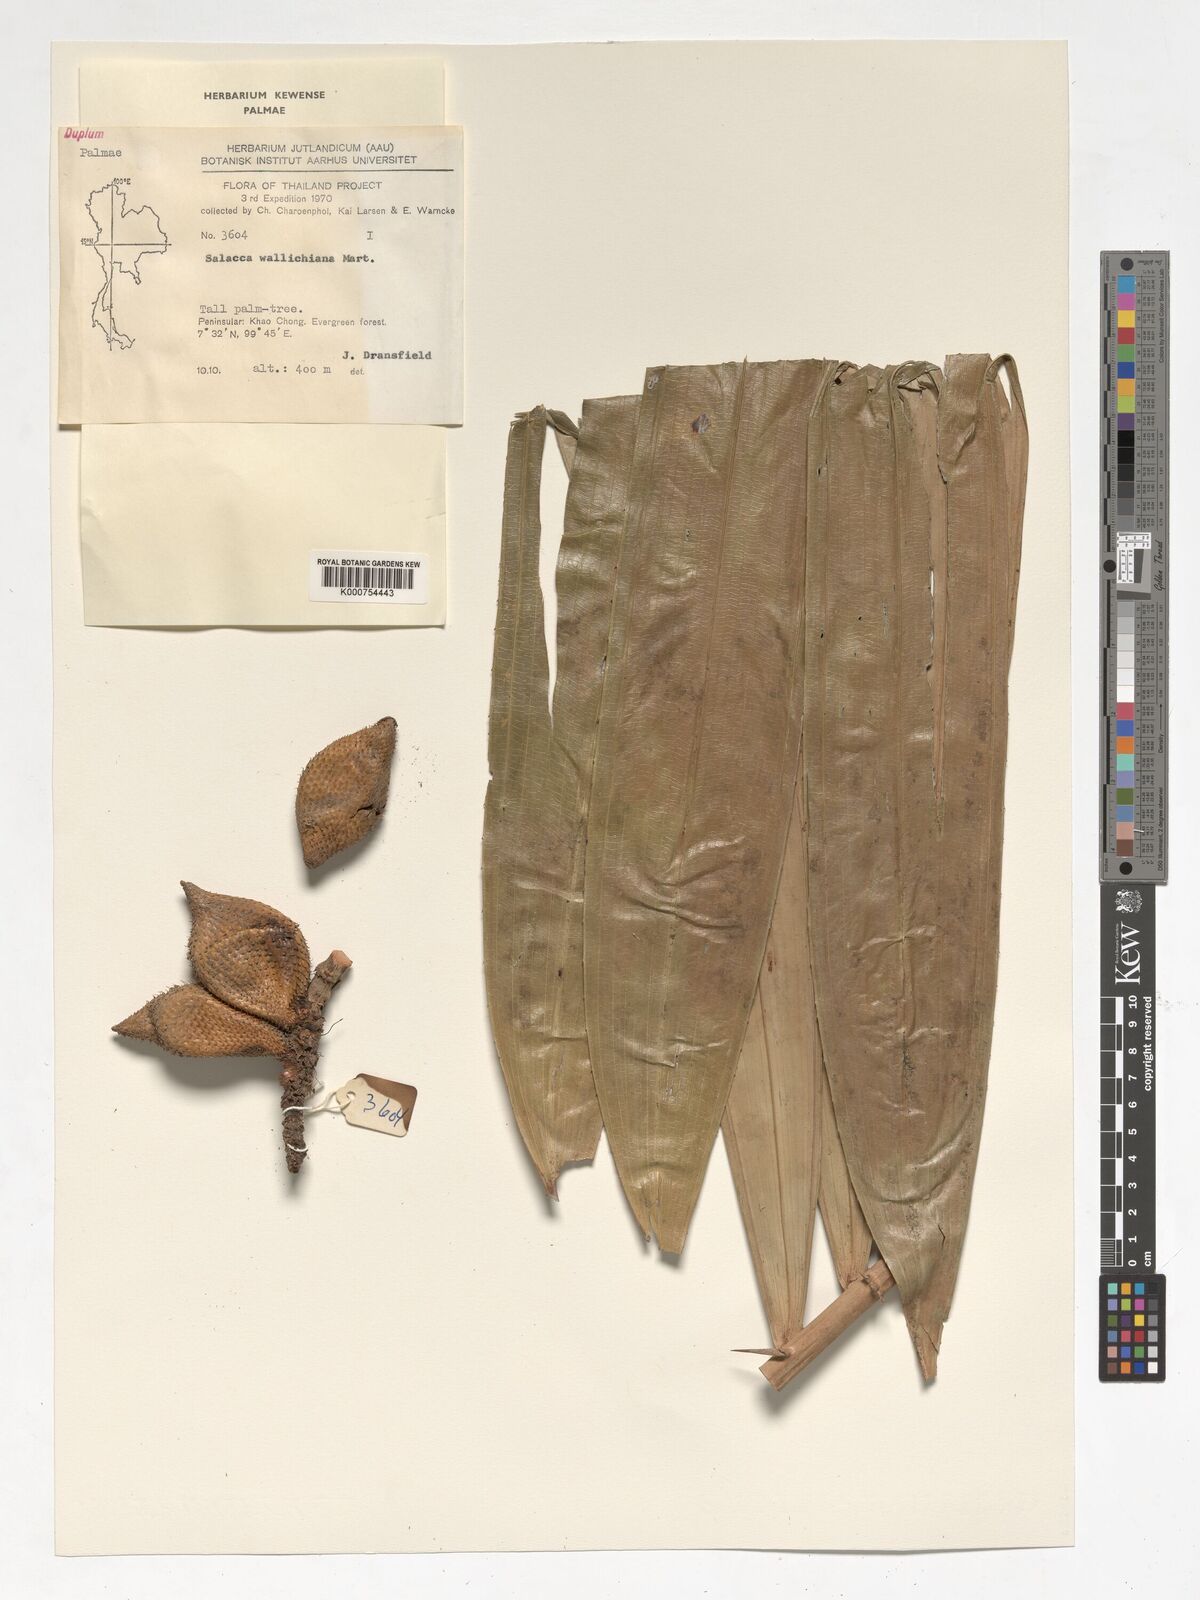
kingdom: Plantae
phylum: Tracheophyta
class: Liliopsida
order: Arecales
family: Arecaceae
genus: Salacca
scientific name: Salacca wallichiana
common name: Rakum palm
